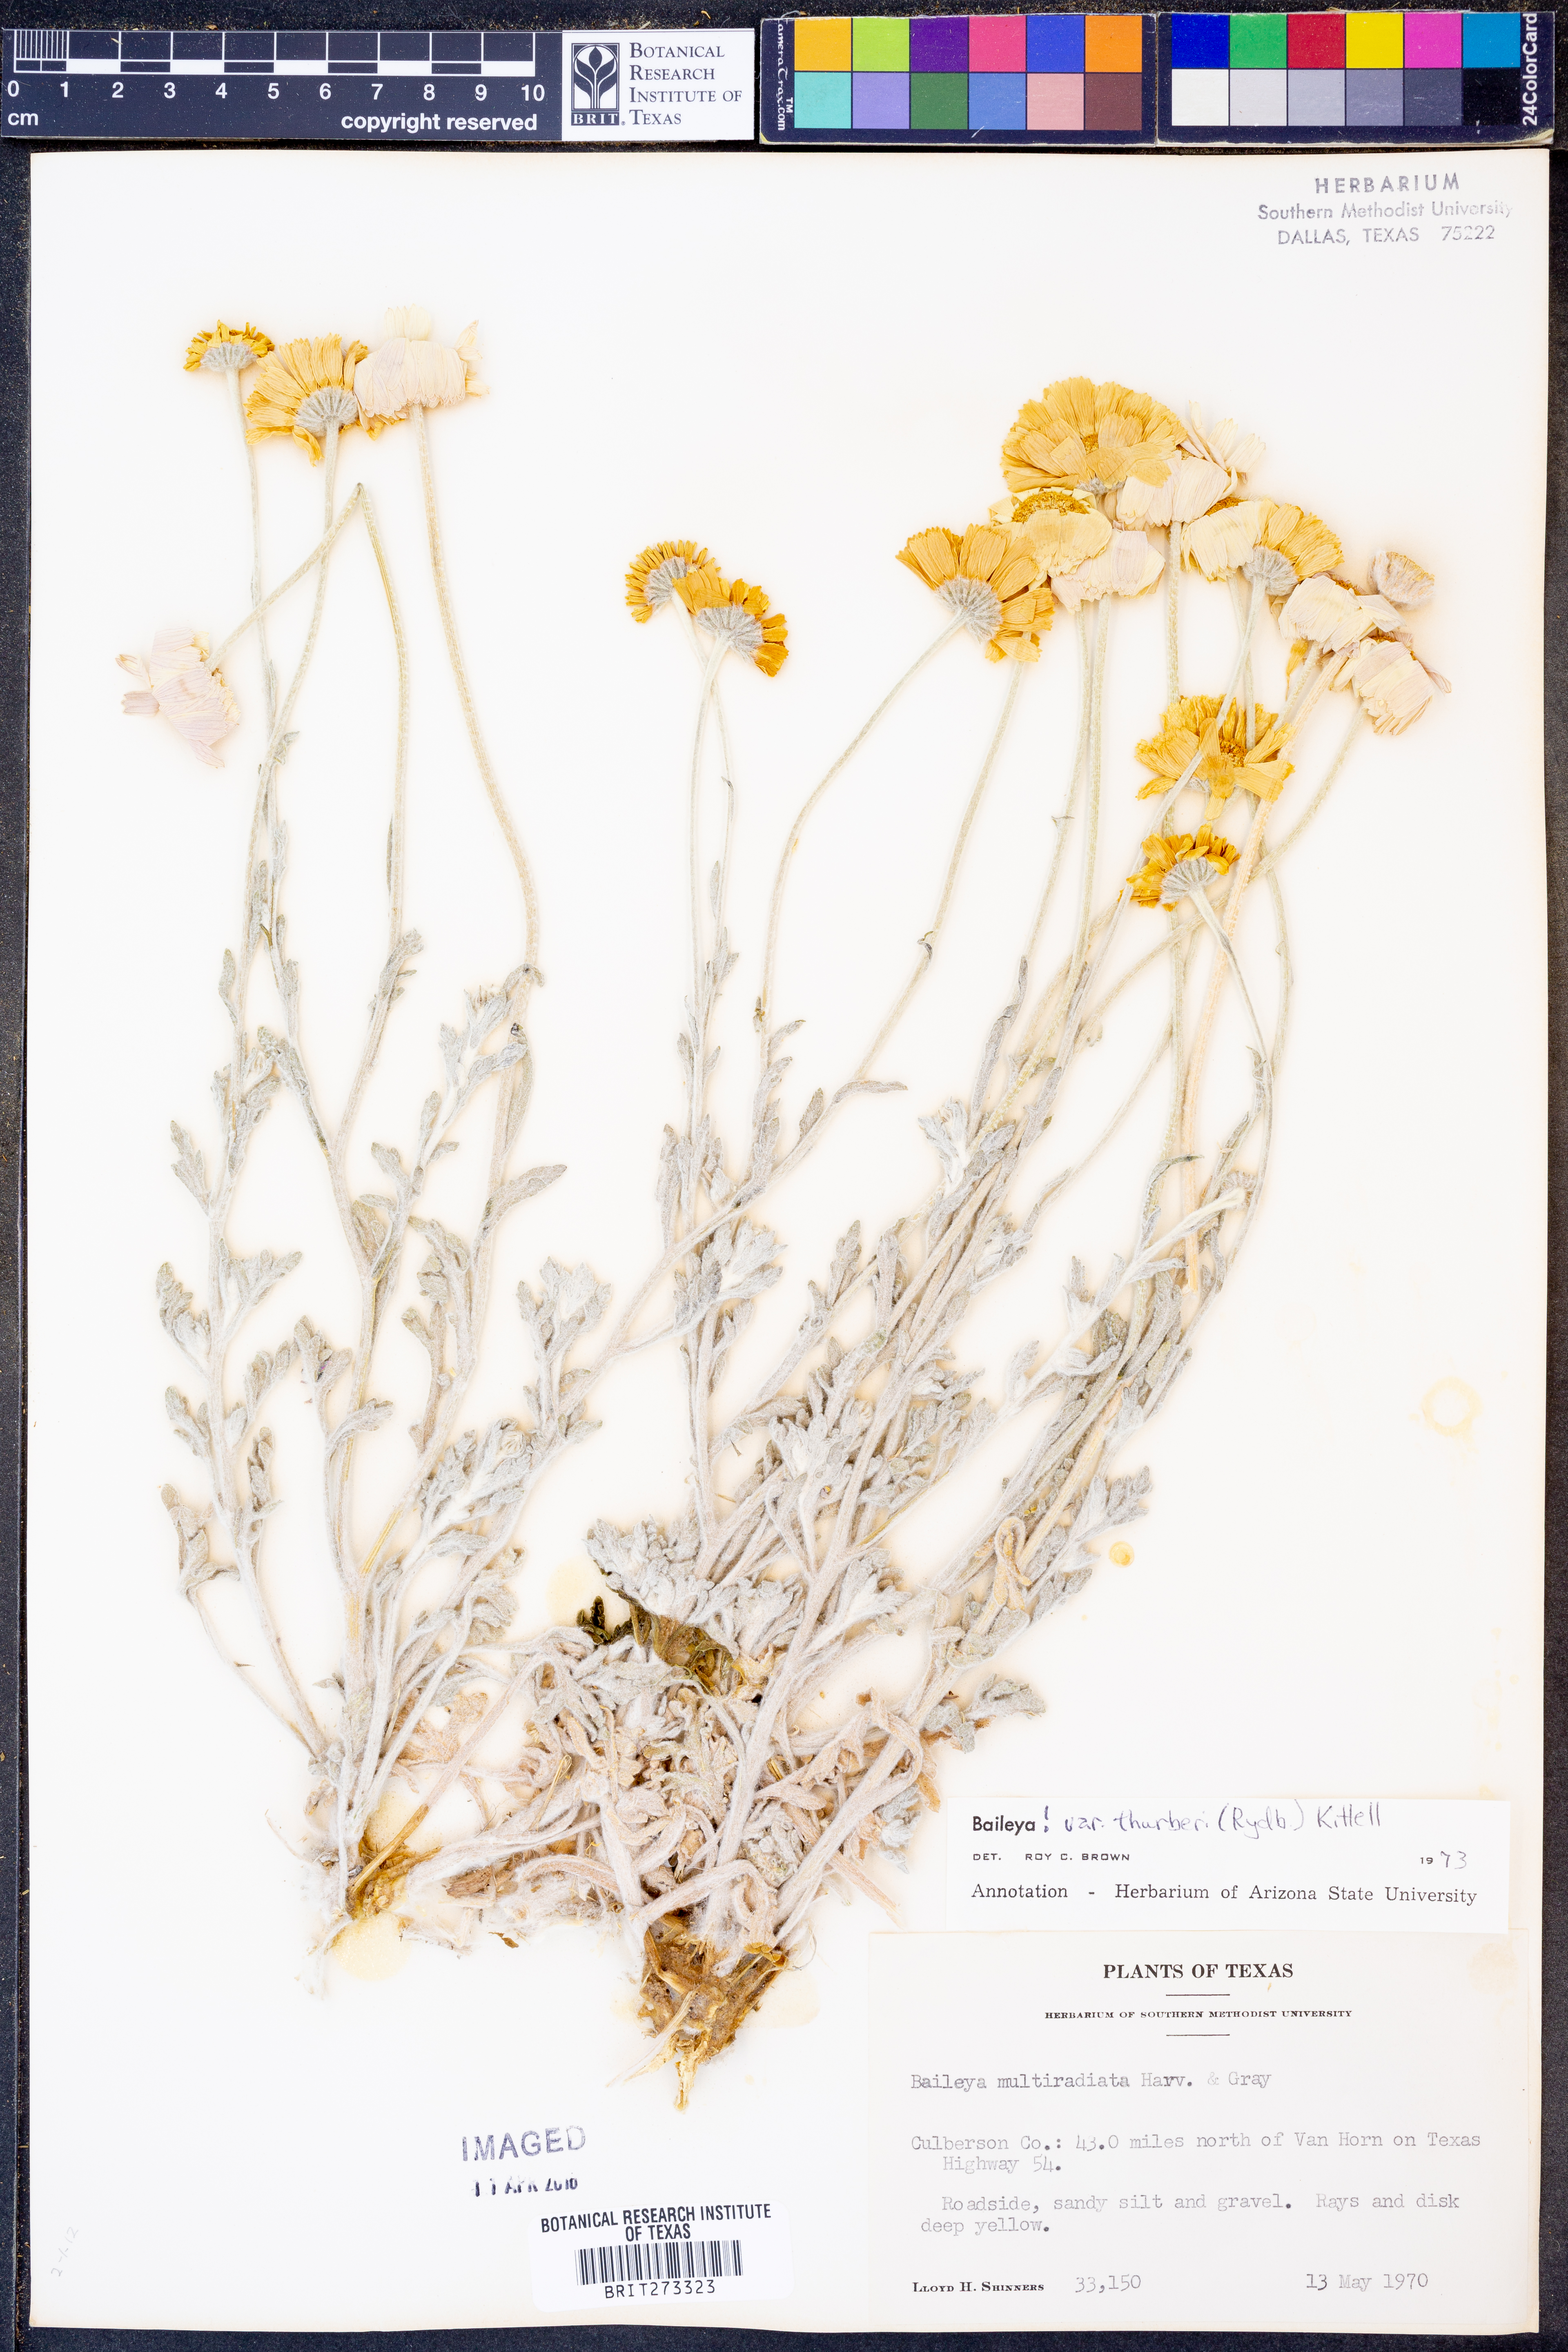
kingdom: Plantae
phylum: Tracheophyta
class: Magnoliopsida
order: Asterales
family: Asteraceae
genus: Baileya
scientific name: Baileya multiradiata
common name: Desert-marigold
